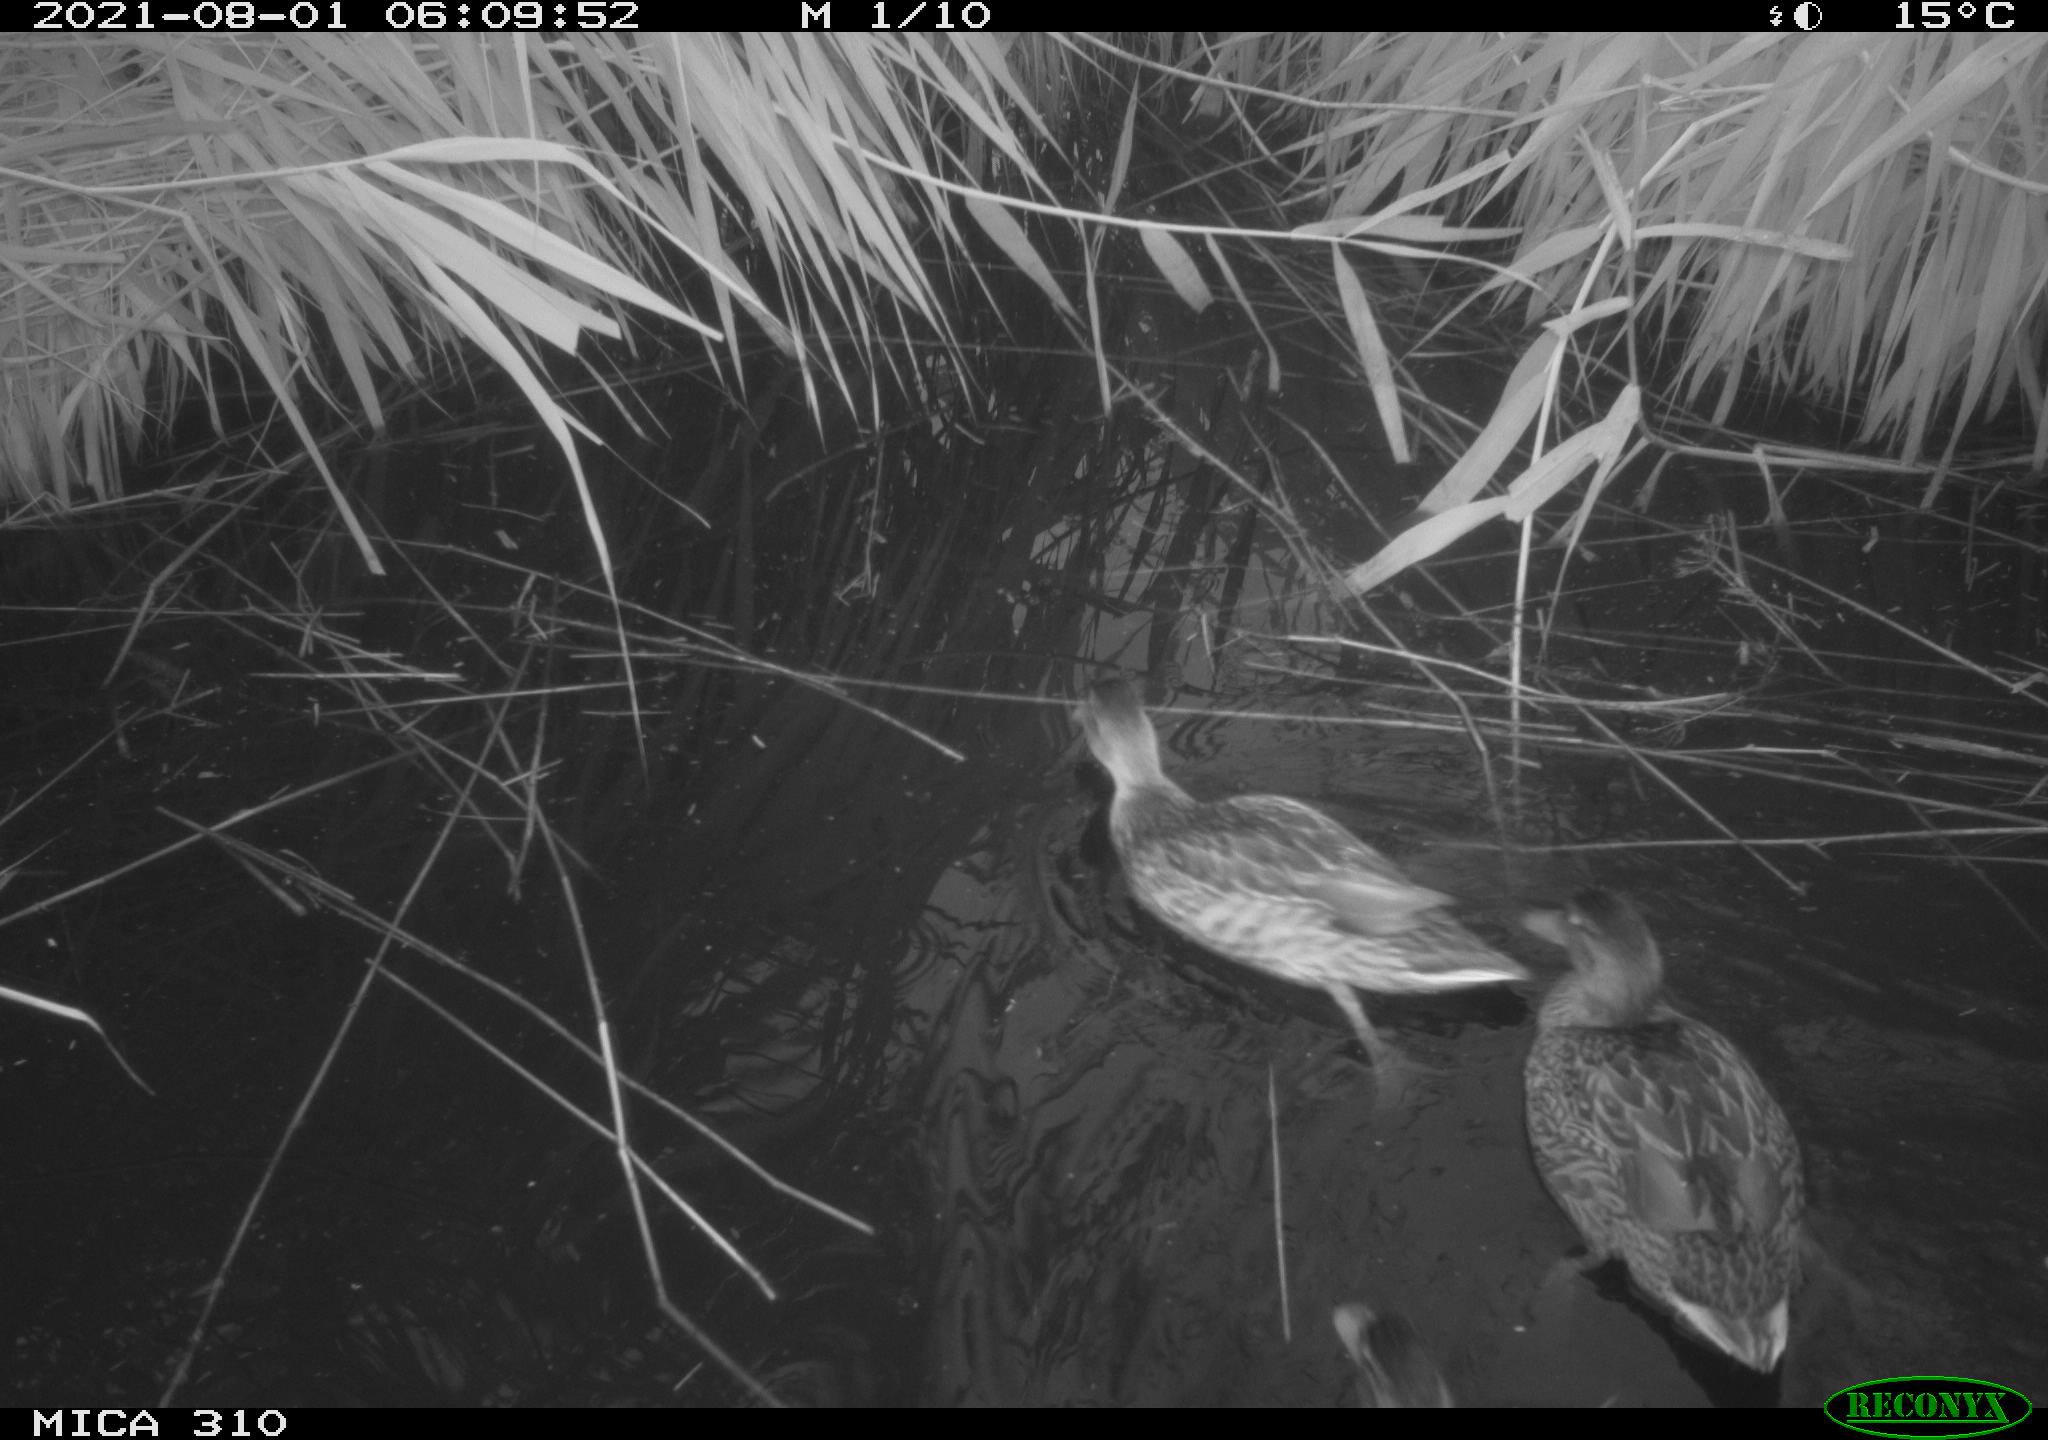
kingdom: Animalia
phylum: Chordata
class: Aves
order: Anseriformes
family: Anatidae
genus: Mareca
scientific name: Mareca strepera
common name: Gadwall
